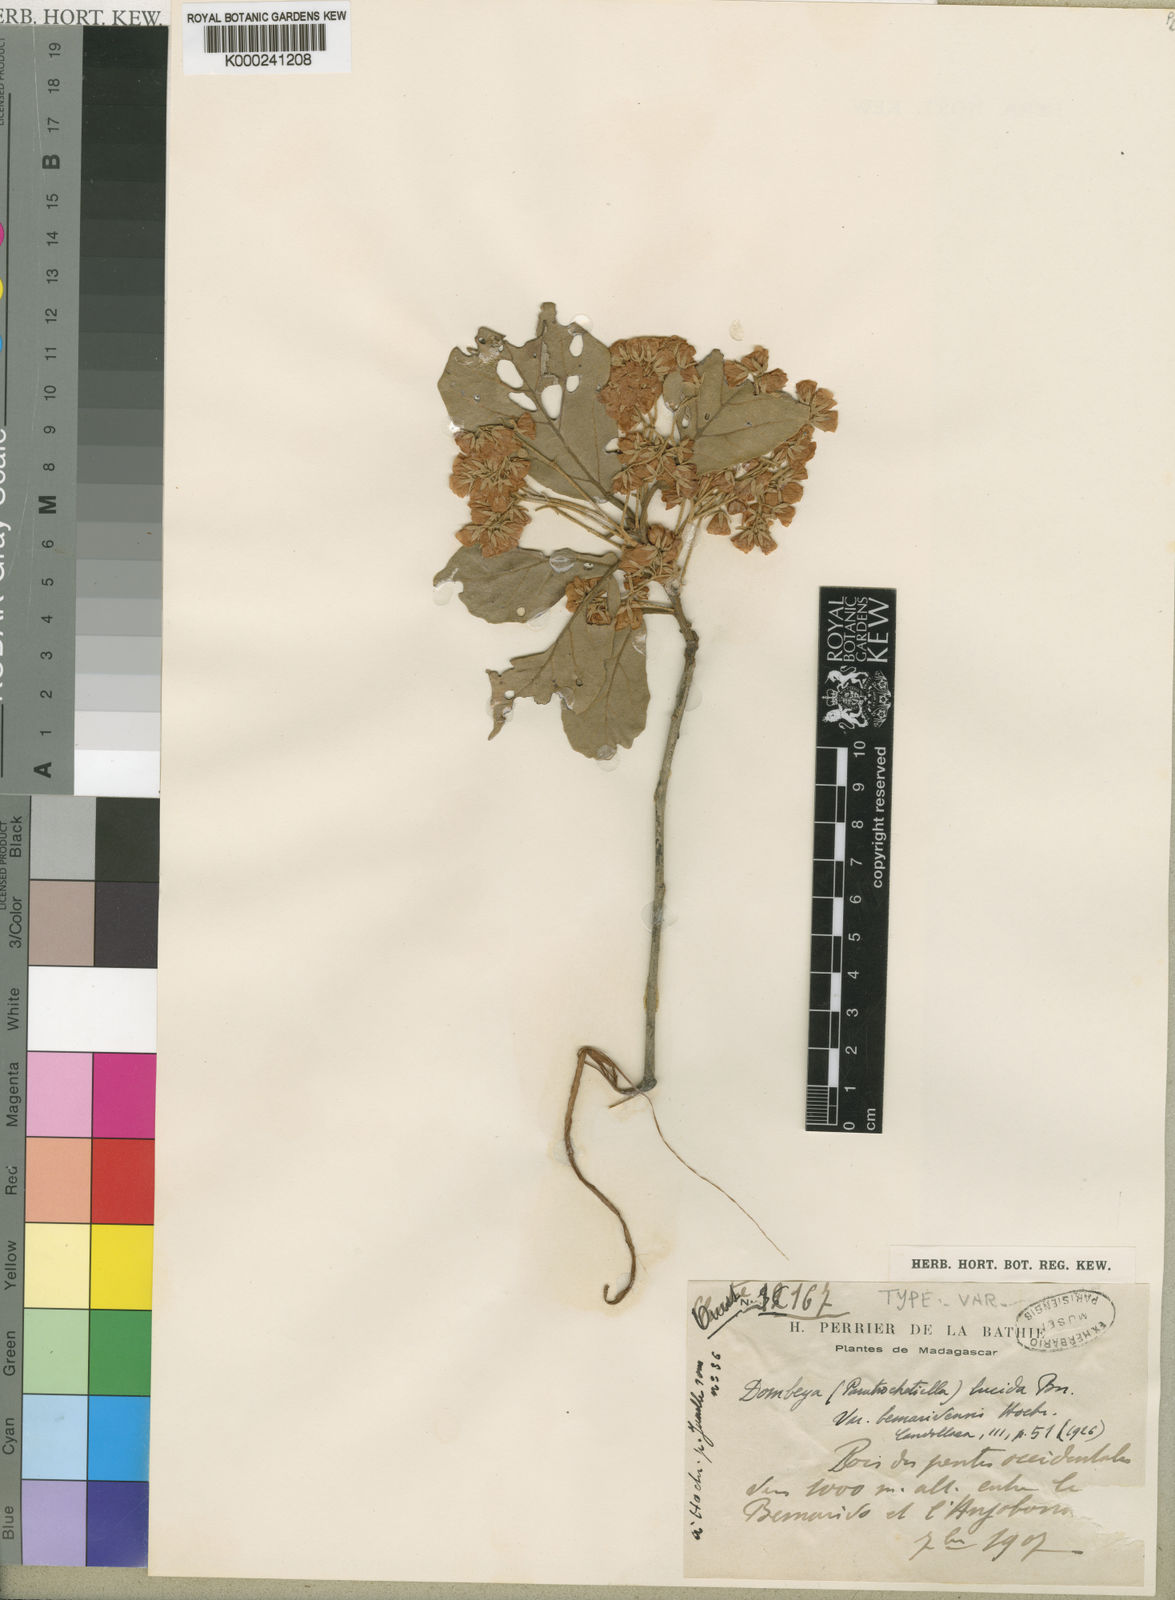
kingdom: Plantae
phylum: Tracheophyta
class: Magnoliopsida
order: Malvales
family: Malvaceae
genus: Dombeya
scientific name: Dombeya bemarivensis
